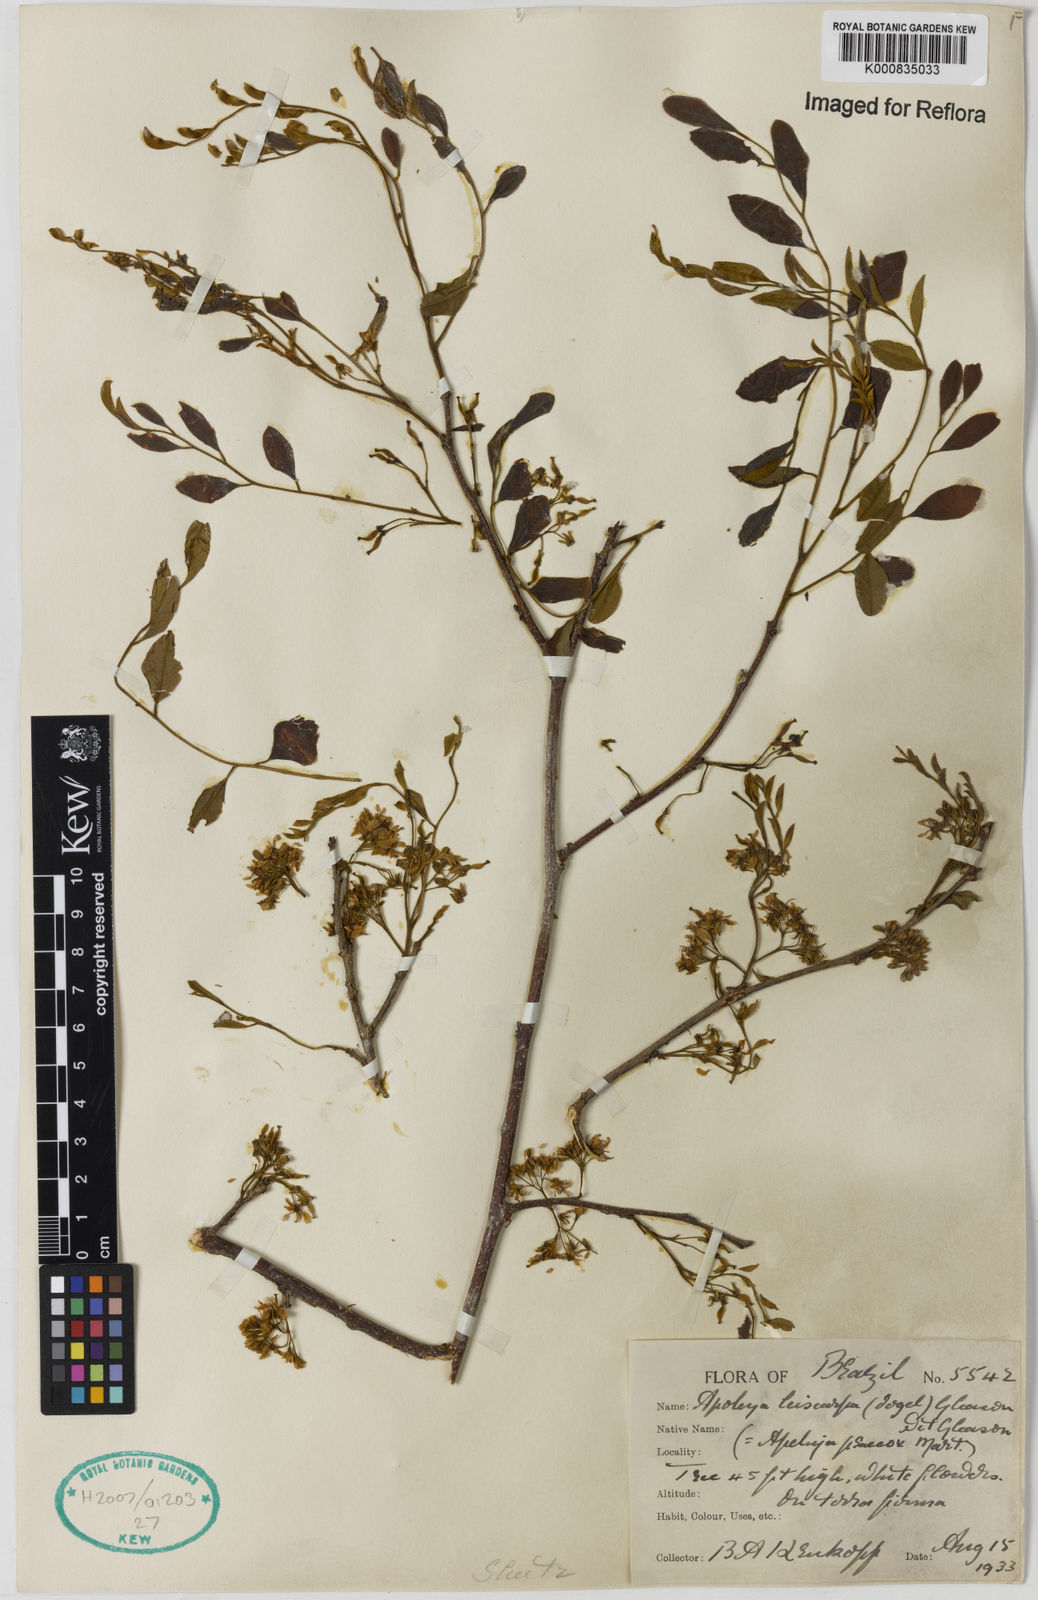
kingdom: Plantae
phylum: Tracheophyta
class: Magnoliopsida
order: Fabales
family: Fabaceae
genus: Apuleia
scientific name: Apuleia leiocarpa
